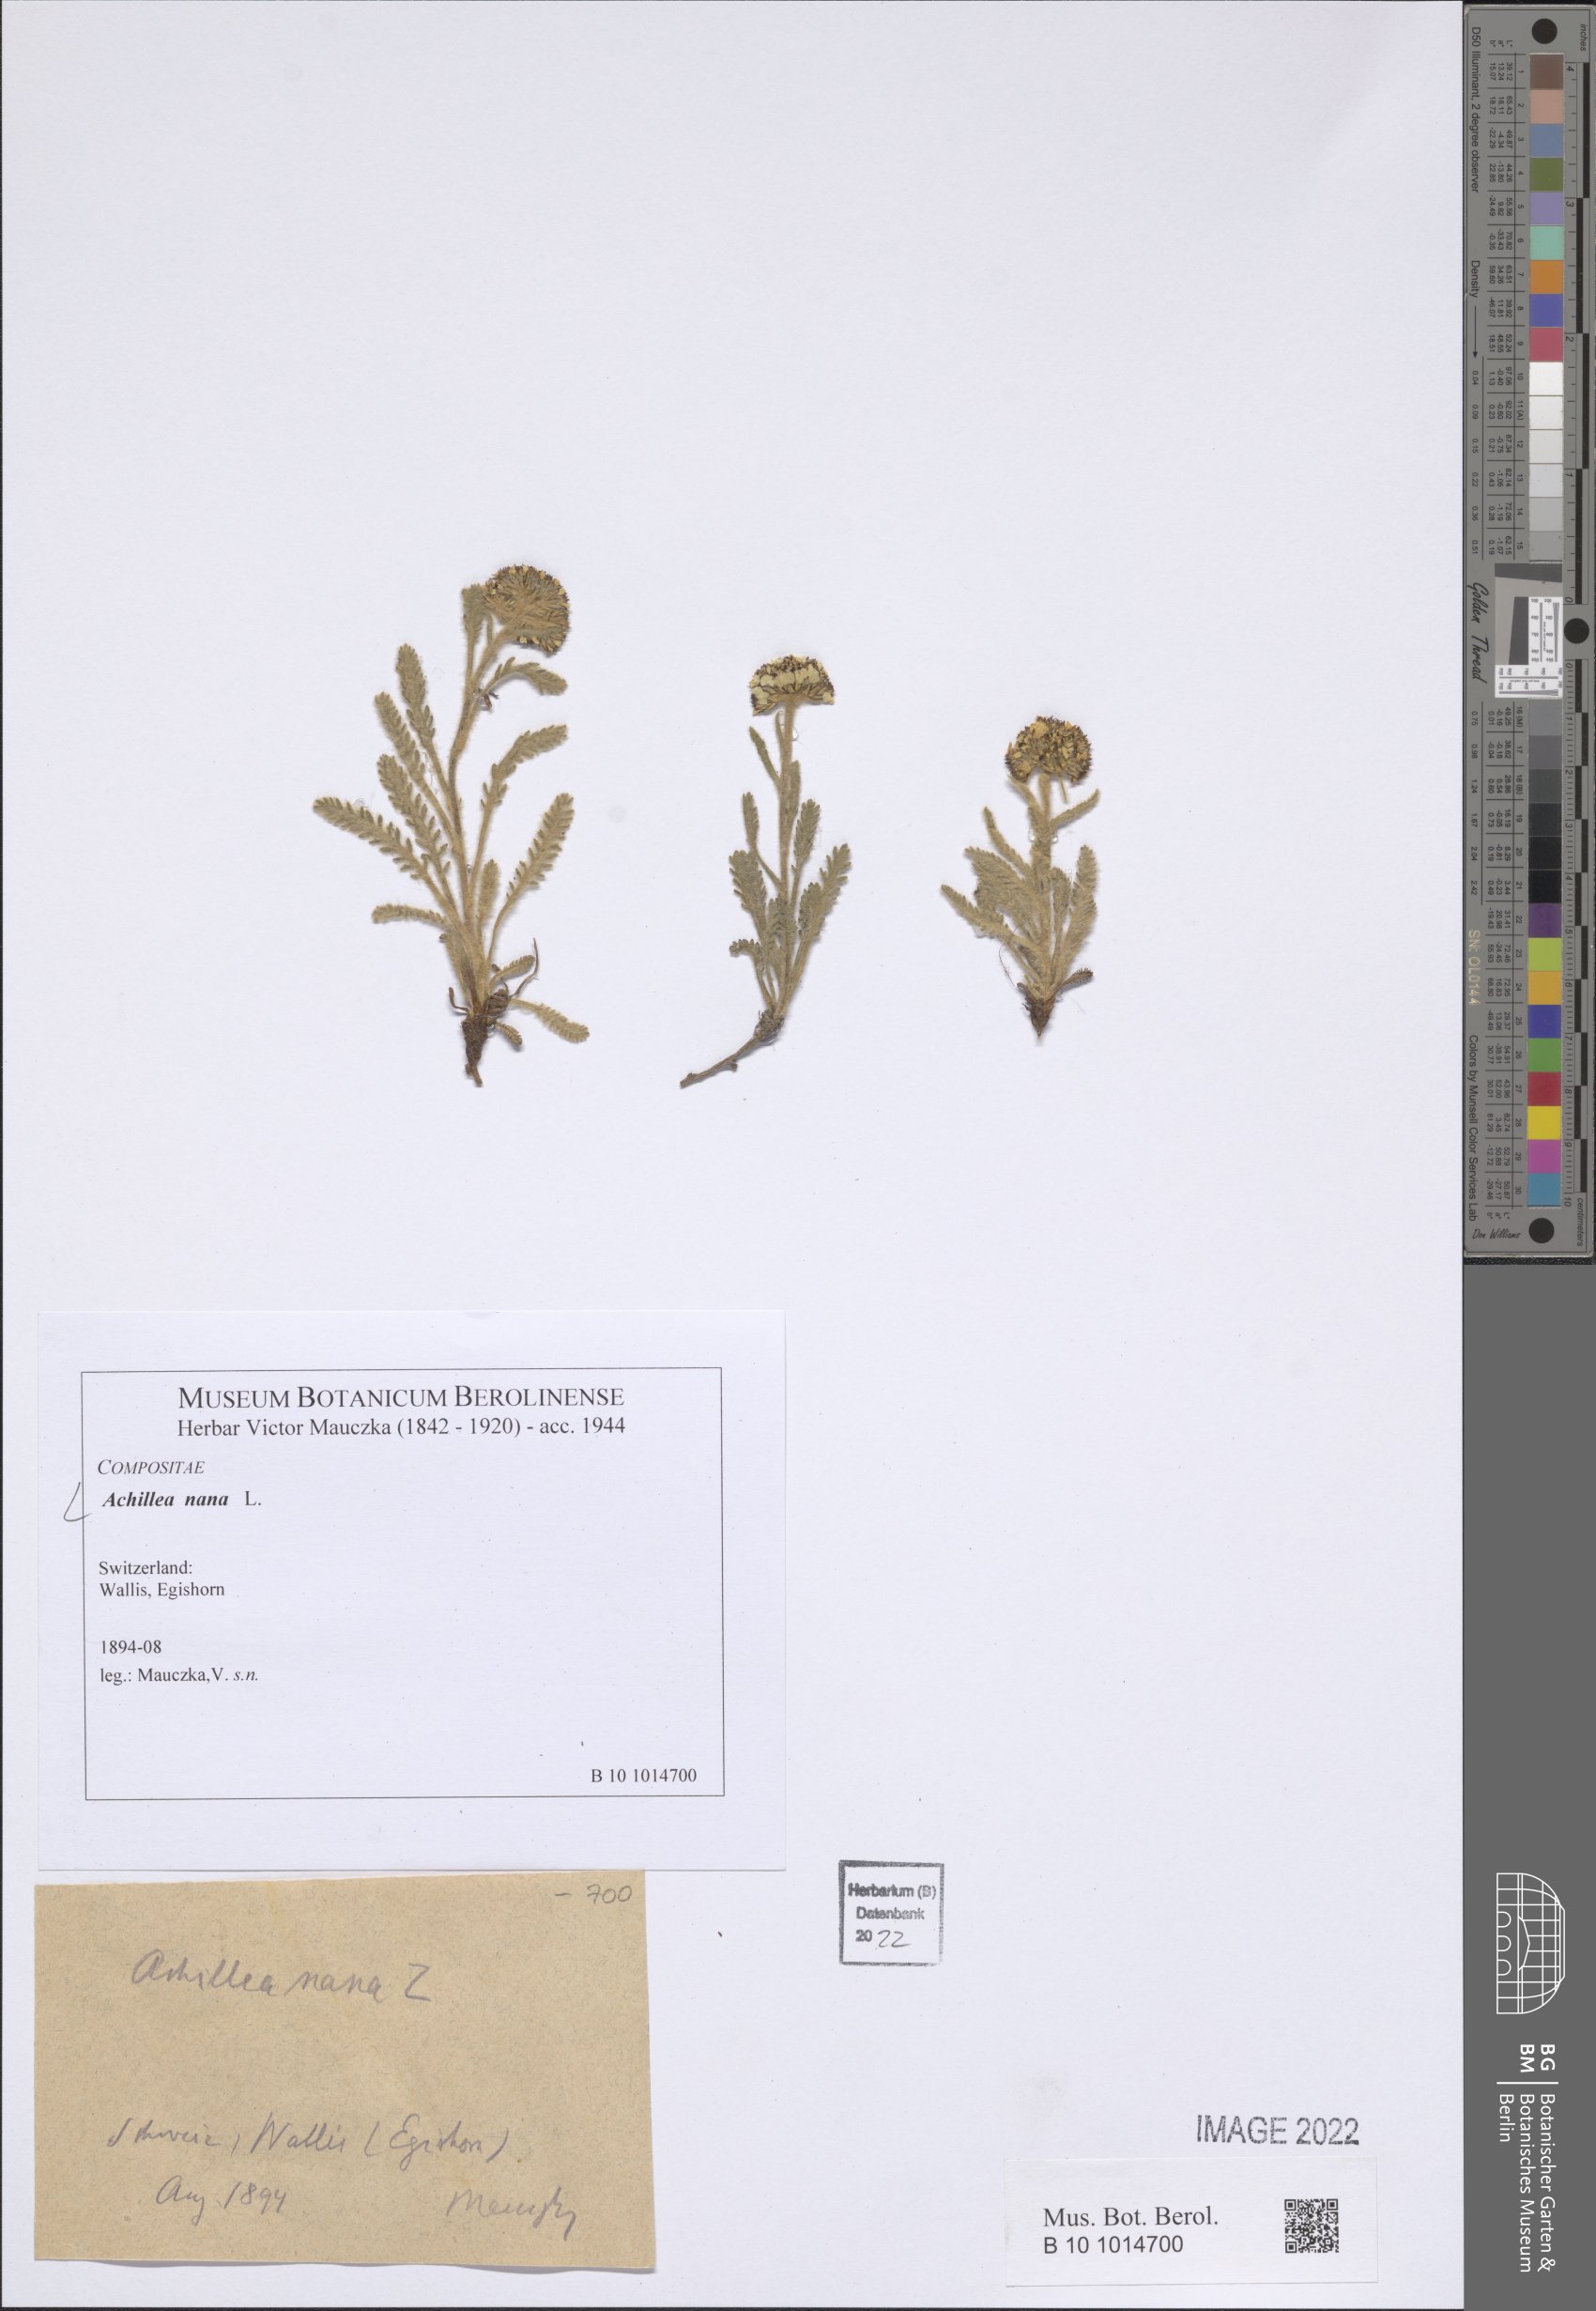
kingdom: Plantae
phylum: Tracheophyta
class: Magnoliopsida
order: Asterales
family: Asteraceae
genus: Achillea
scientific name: Achillea nana
